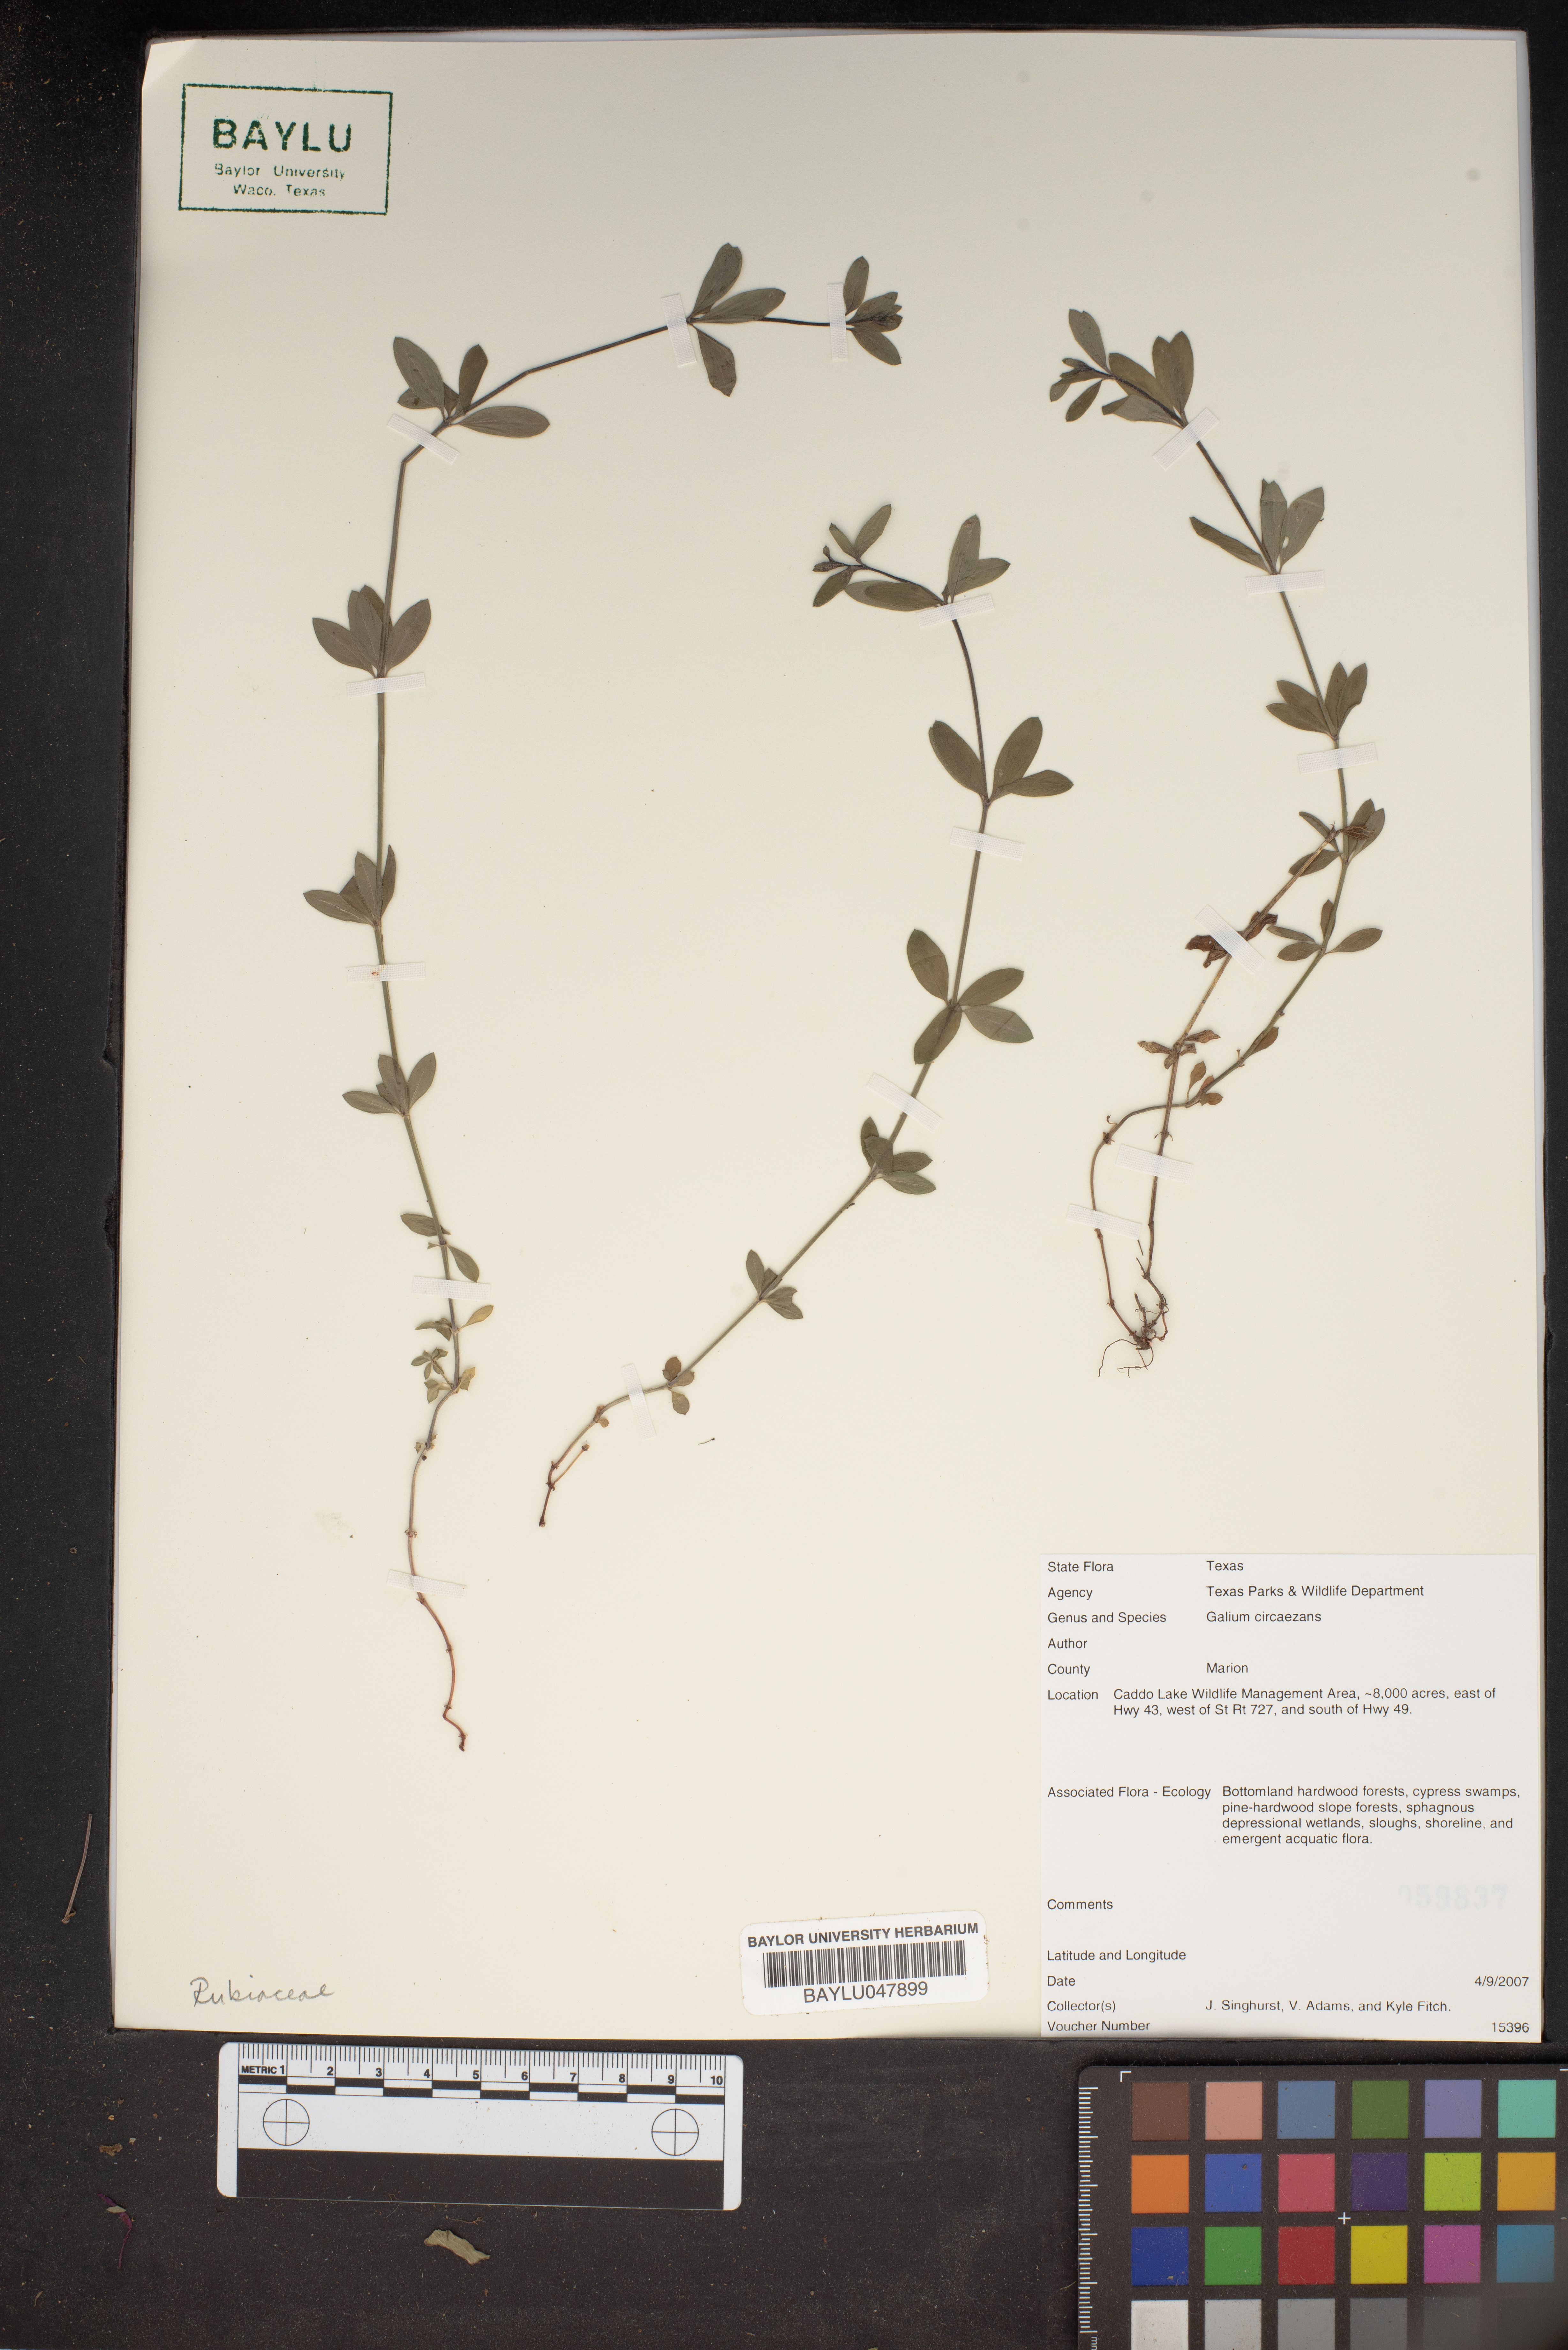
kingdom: Plantae
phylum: Tracheophyta
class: Magnoliopsida
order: Gentianales
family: Rubiaceae
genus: Galium
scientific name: Galium circaezans
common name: Forest bedstraw
